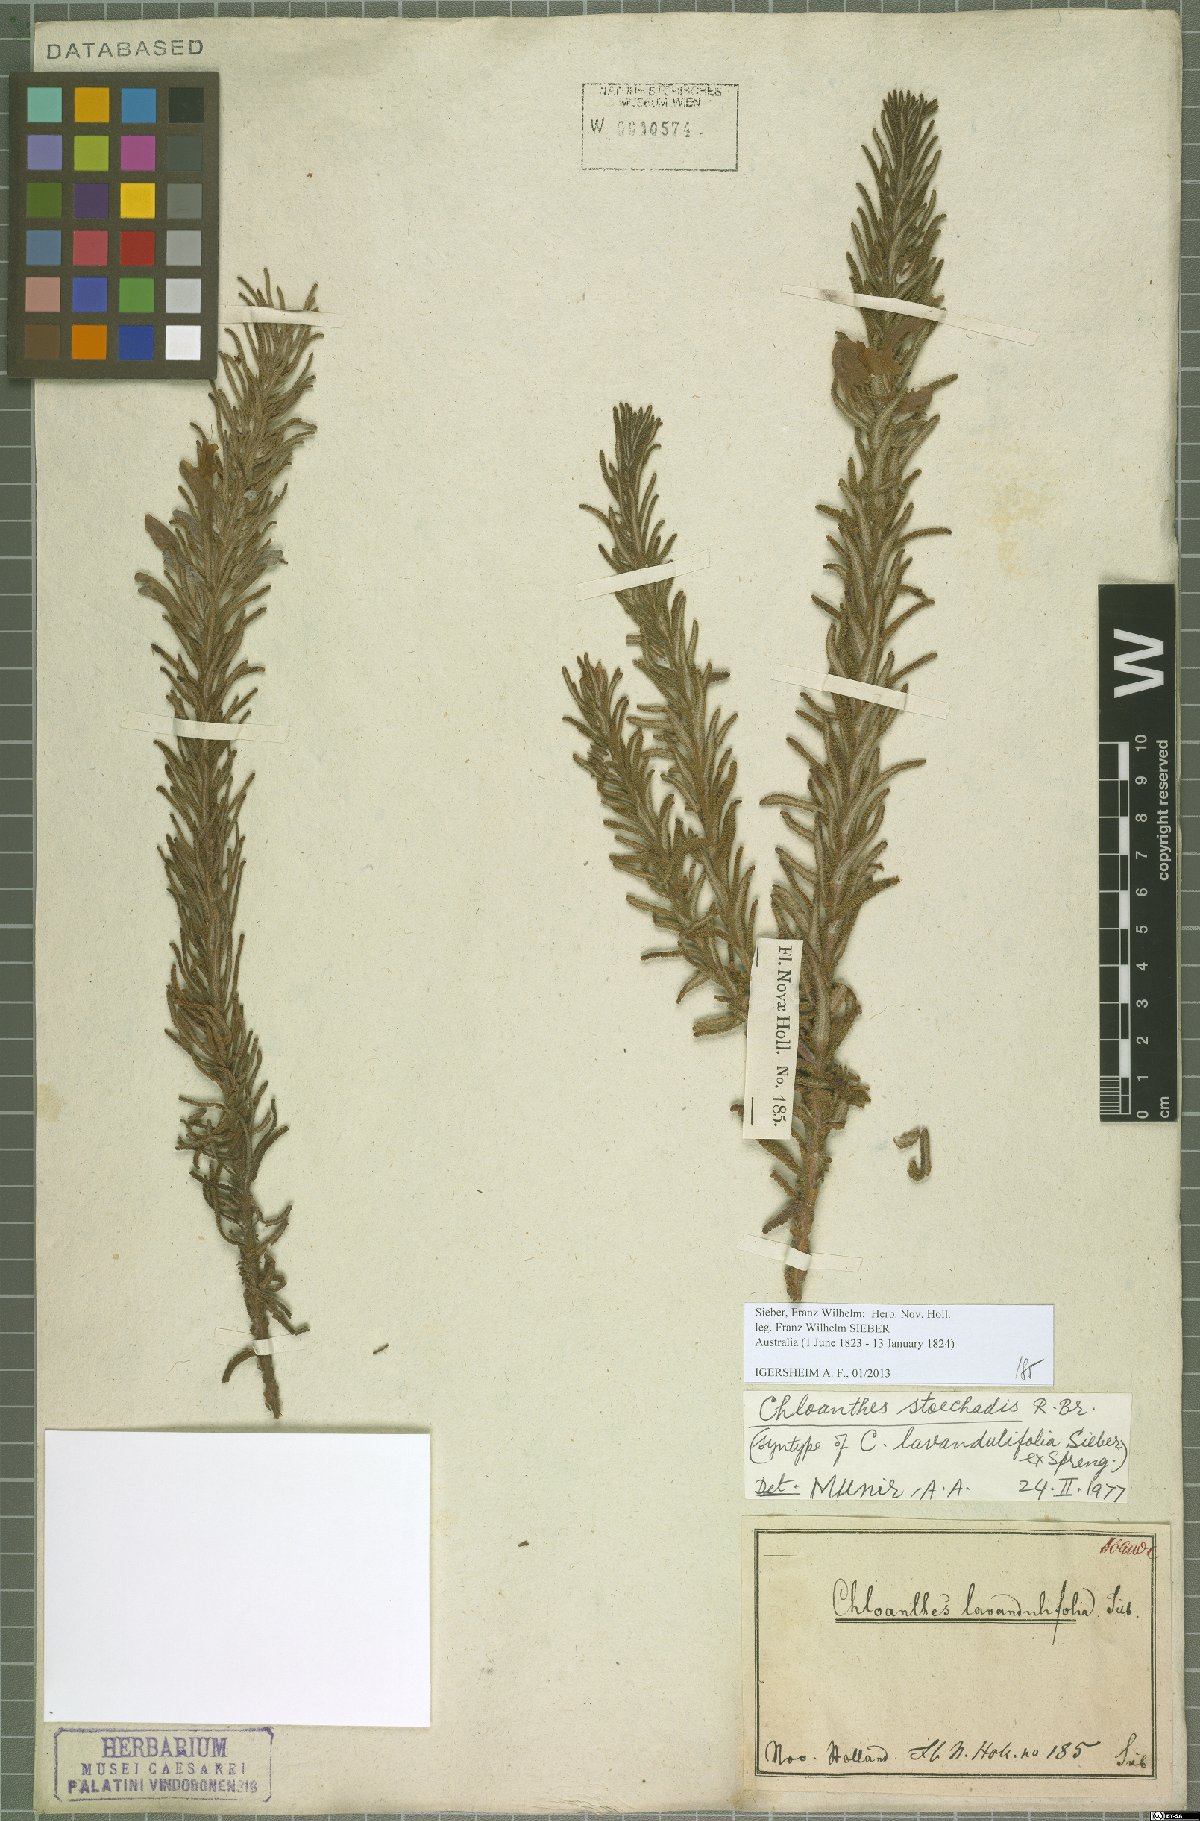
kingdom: Plantae
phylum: Tracheophyta
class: Magnoliopsida
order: Lamiales
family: Lamiaceae
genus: Chloanthes
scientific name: Chloanthes stoechadis
